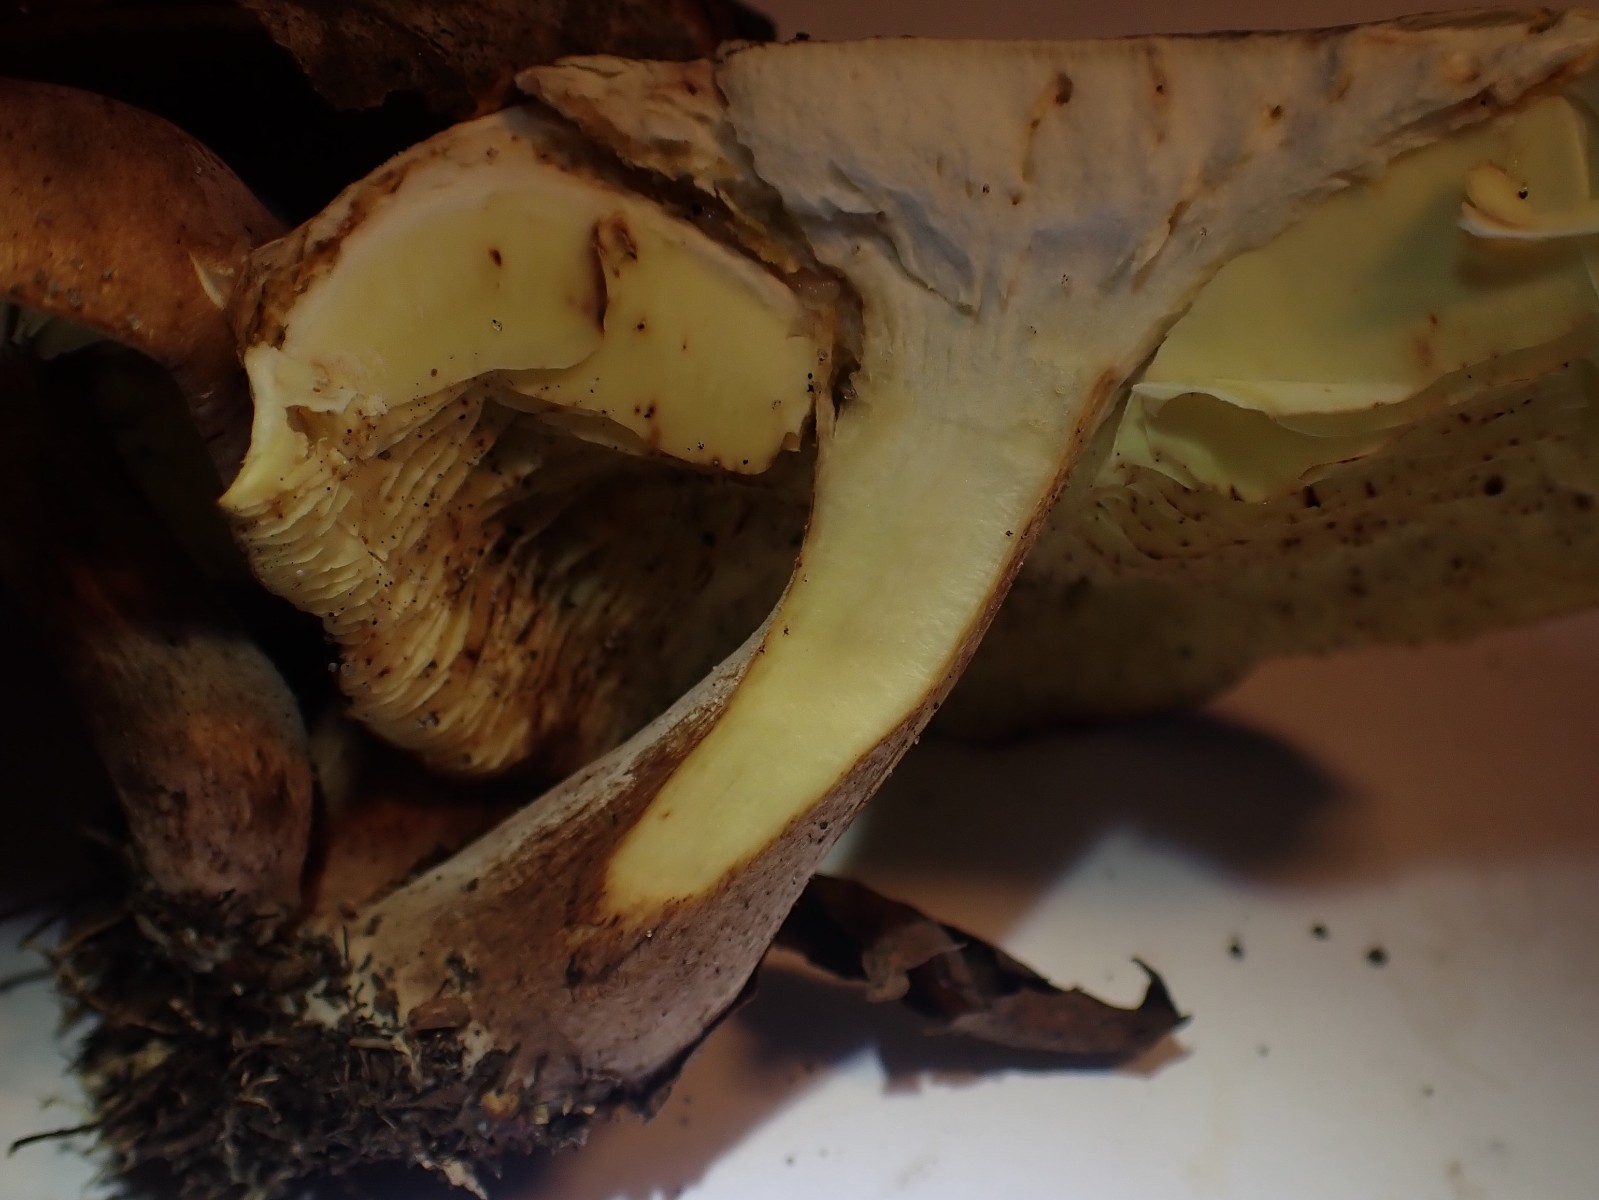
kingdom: Fungi
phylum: Basidiomycota
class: Agaricomycetes
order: Agaricales
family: Tricholomataceae
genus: Tricholoma
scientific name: Tricholoma fulvum
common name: birke-ridderhat
